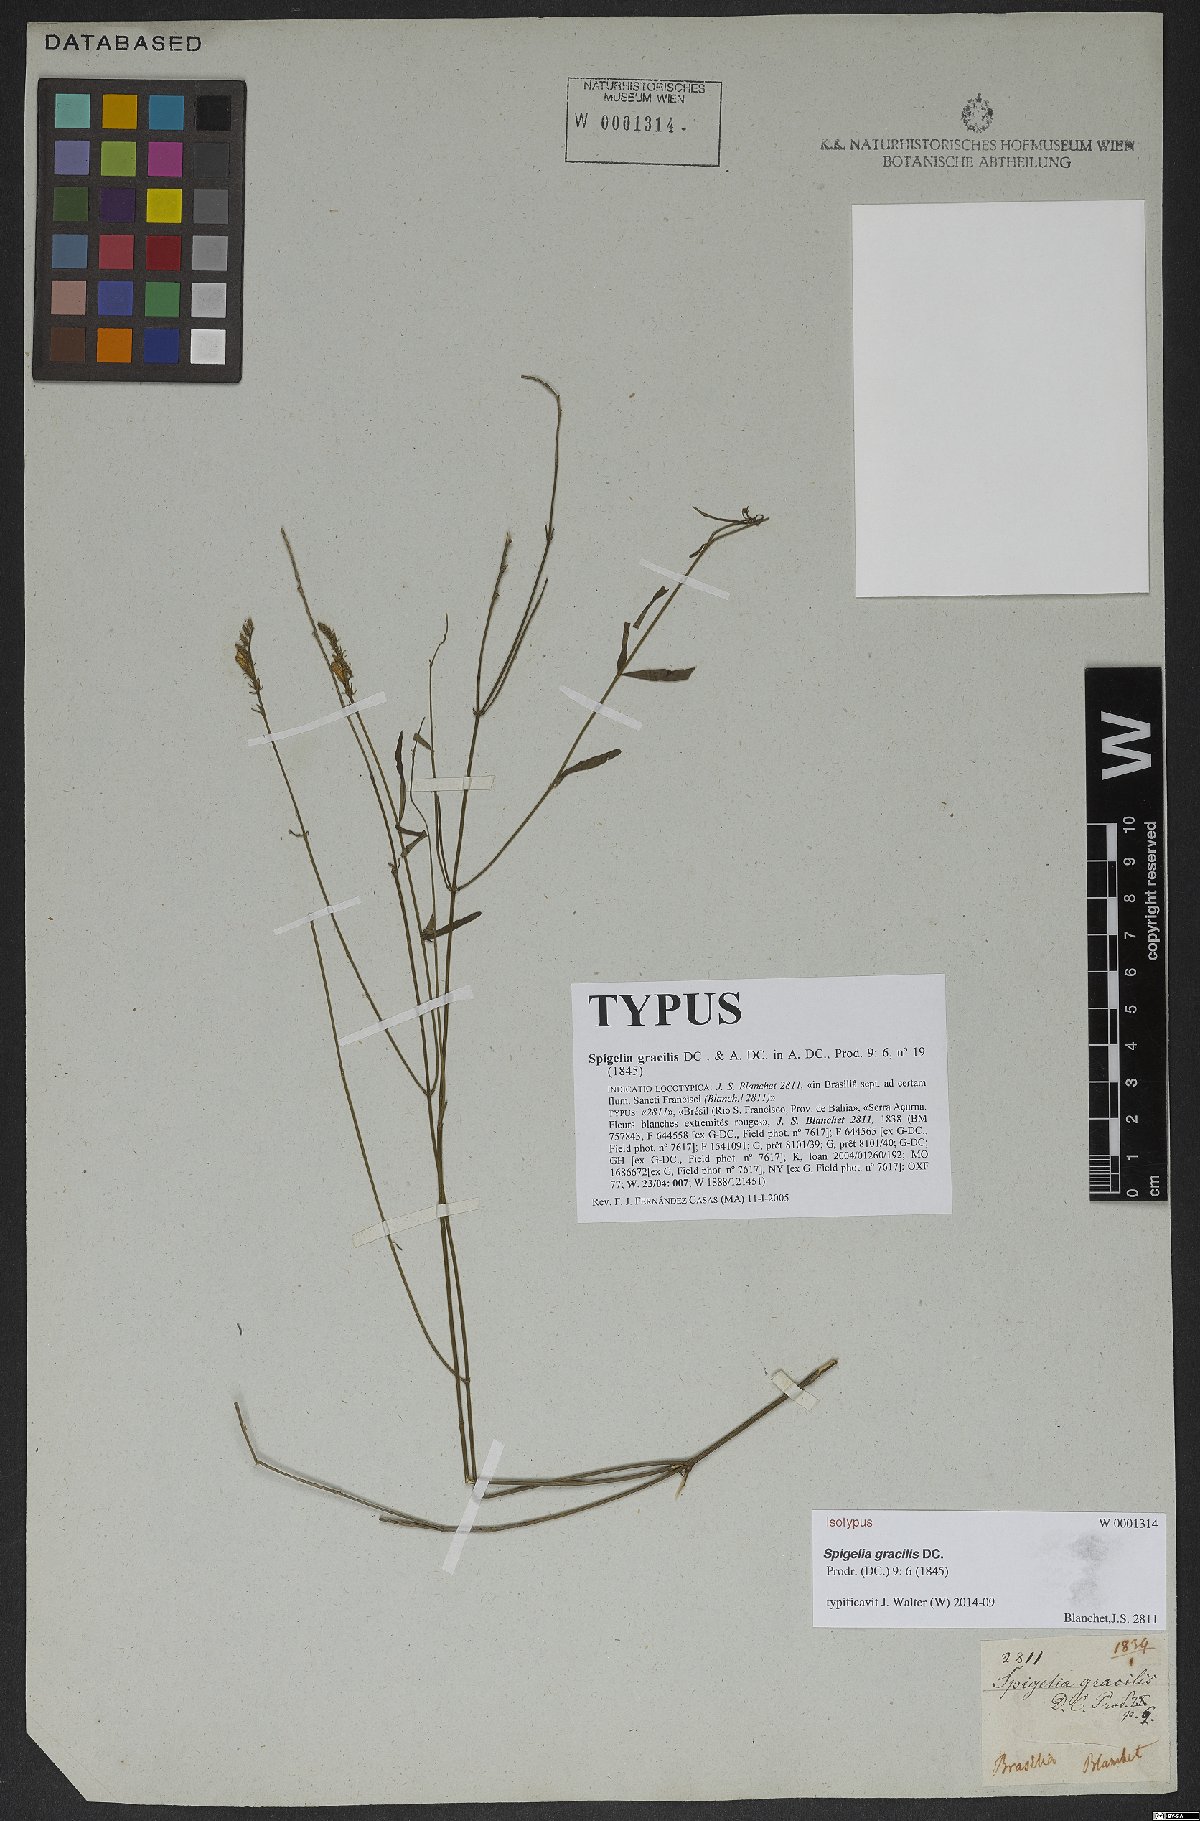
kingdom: Plantae
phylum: Tracheophyta
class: Magnoliopsida
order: Gentianales
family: Loganiaceae
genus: Spigelia
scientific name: Spigelia gracilis
